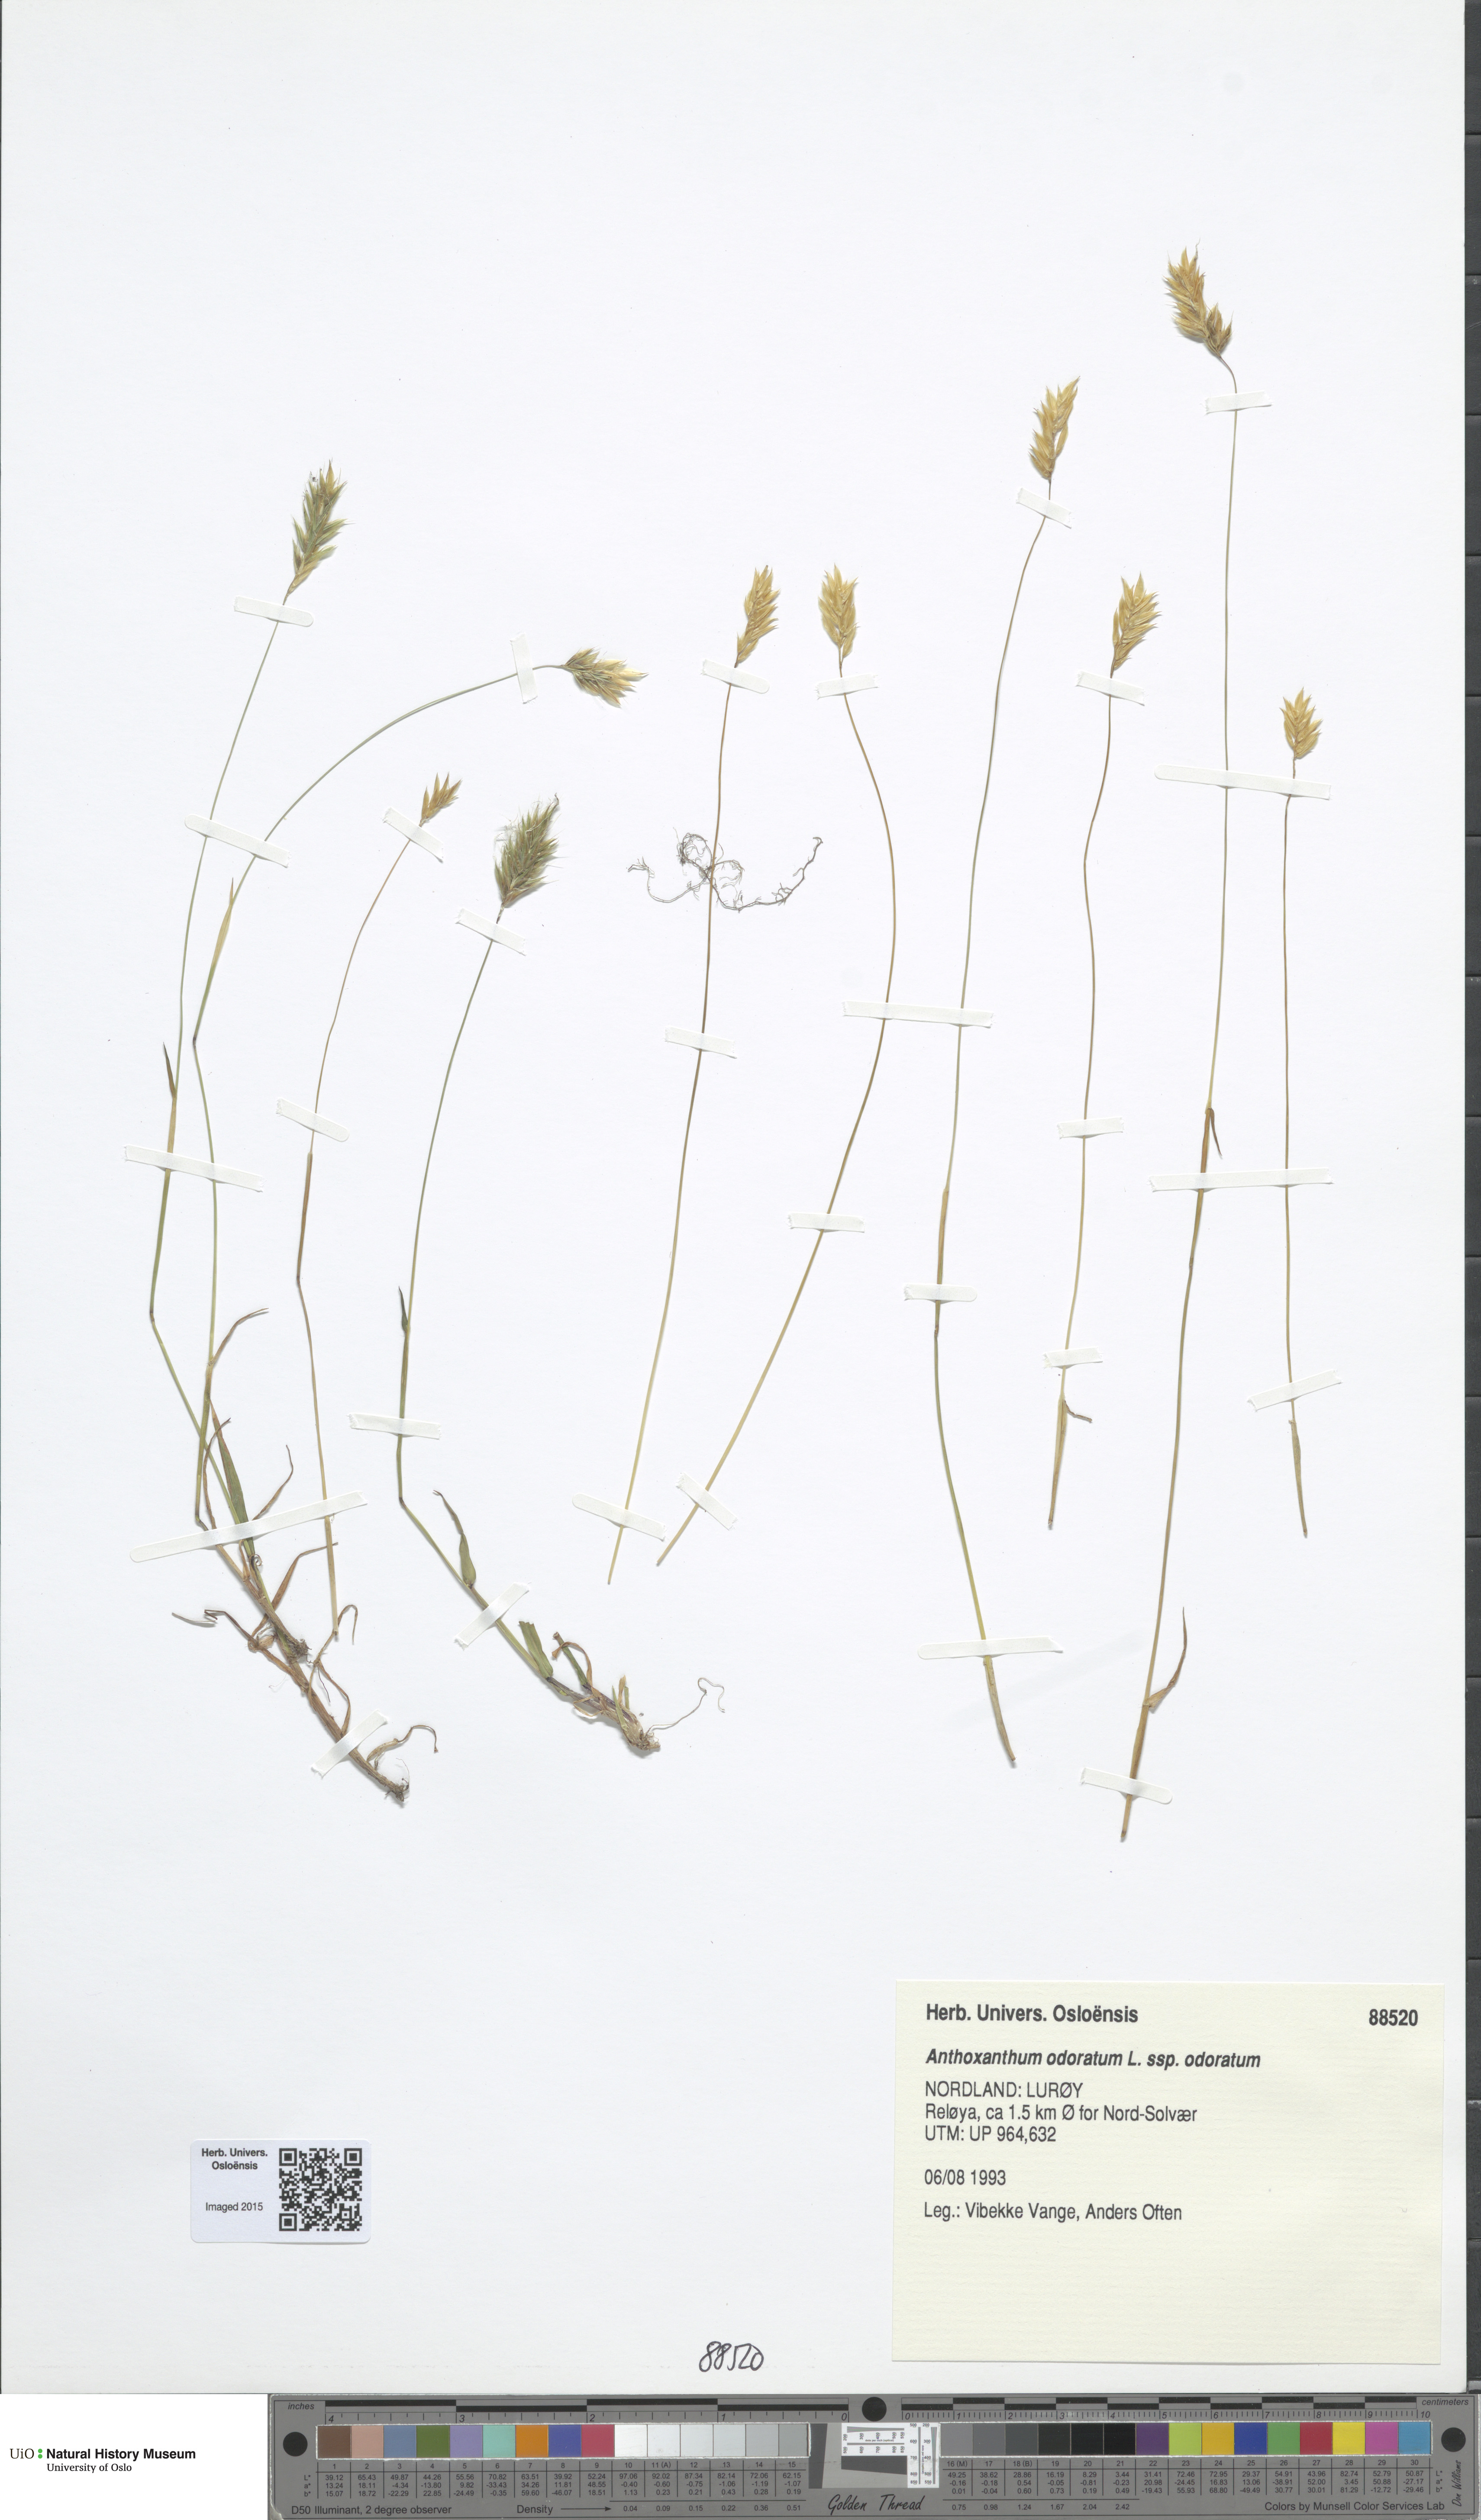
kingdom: Plantae
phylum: Tracheophyta
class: Liliopsida
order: Poales
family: Poaceae
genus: Anthoxanthum
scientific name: Anthoxanthum odoratum
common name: Sweet vernalgrass
